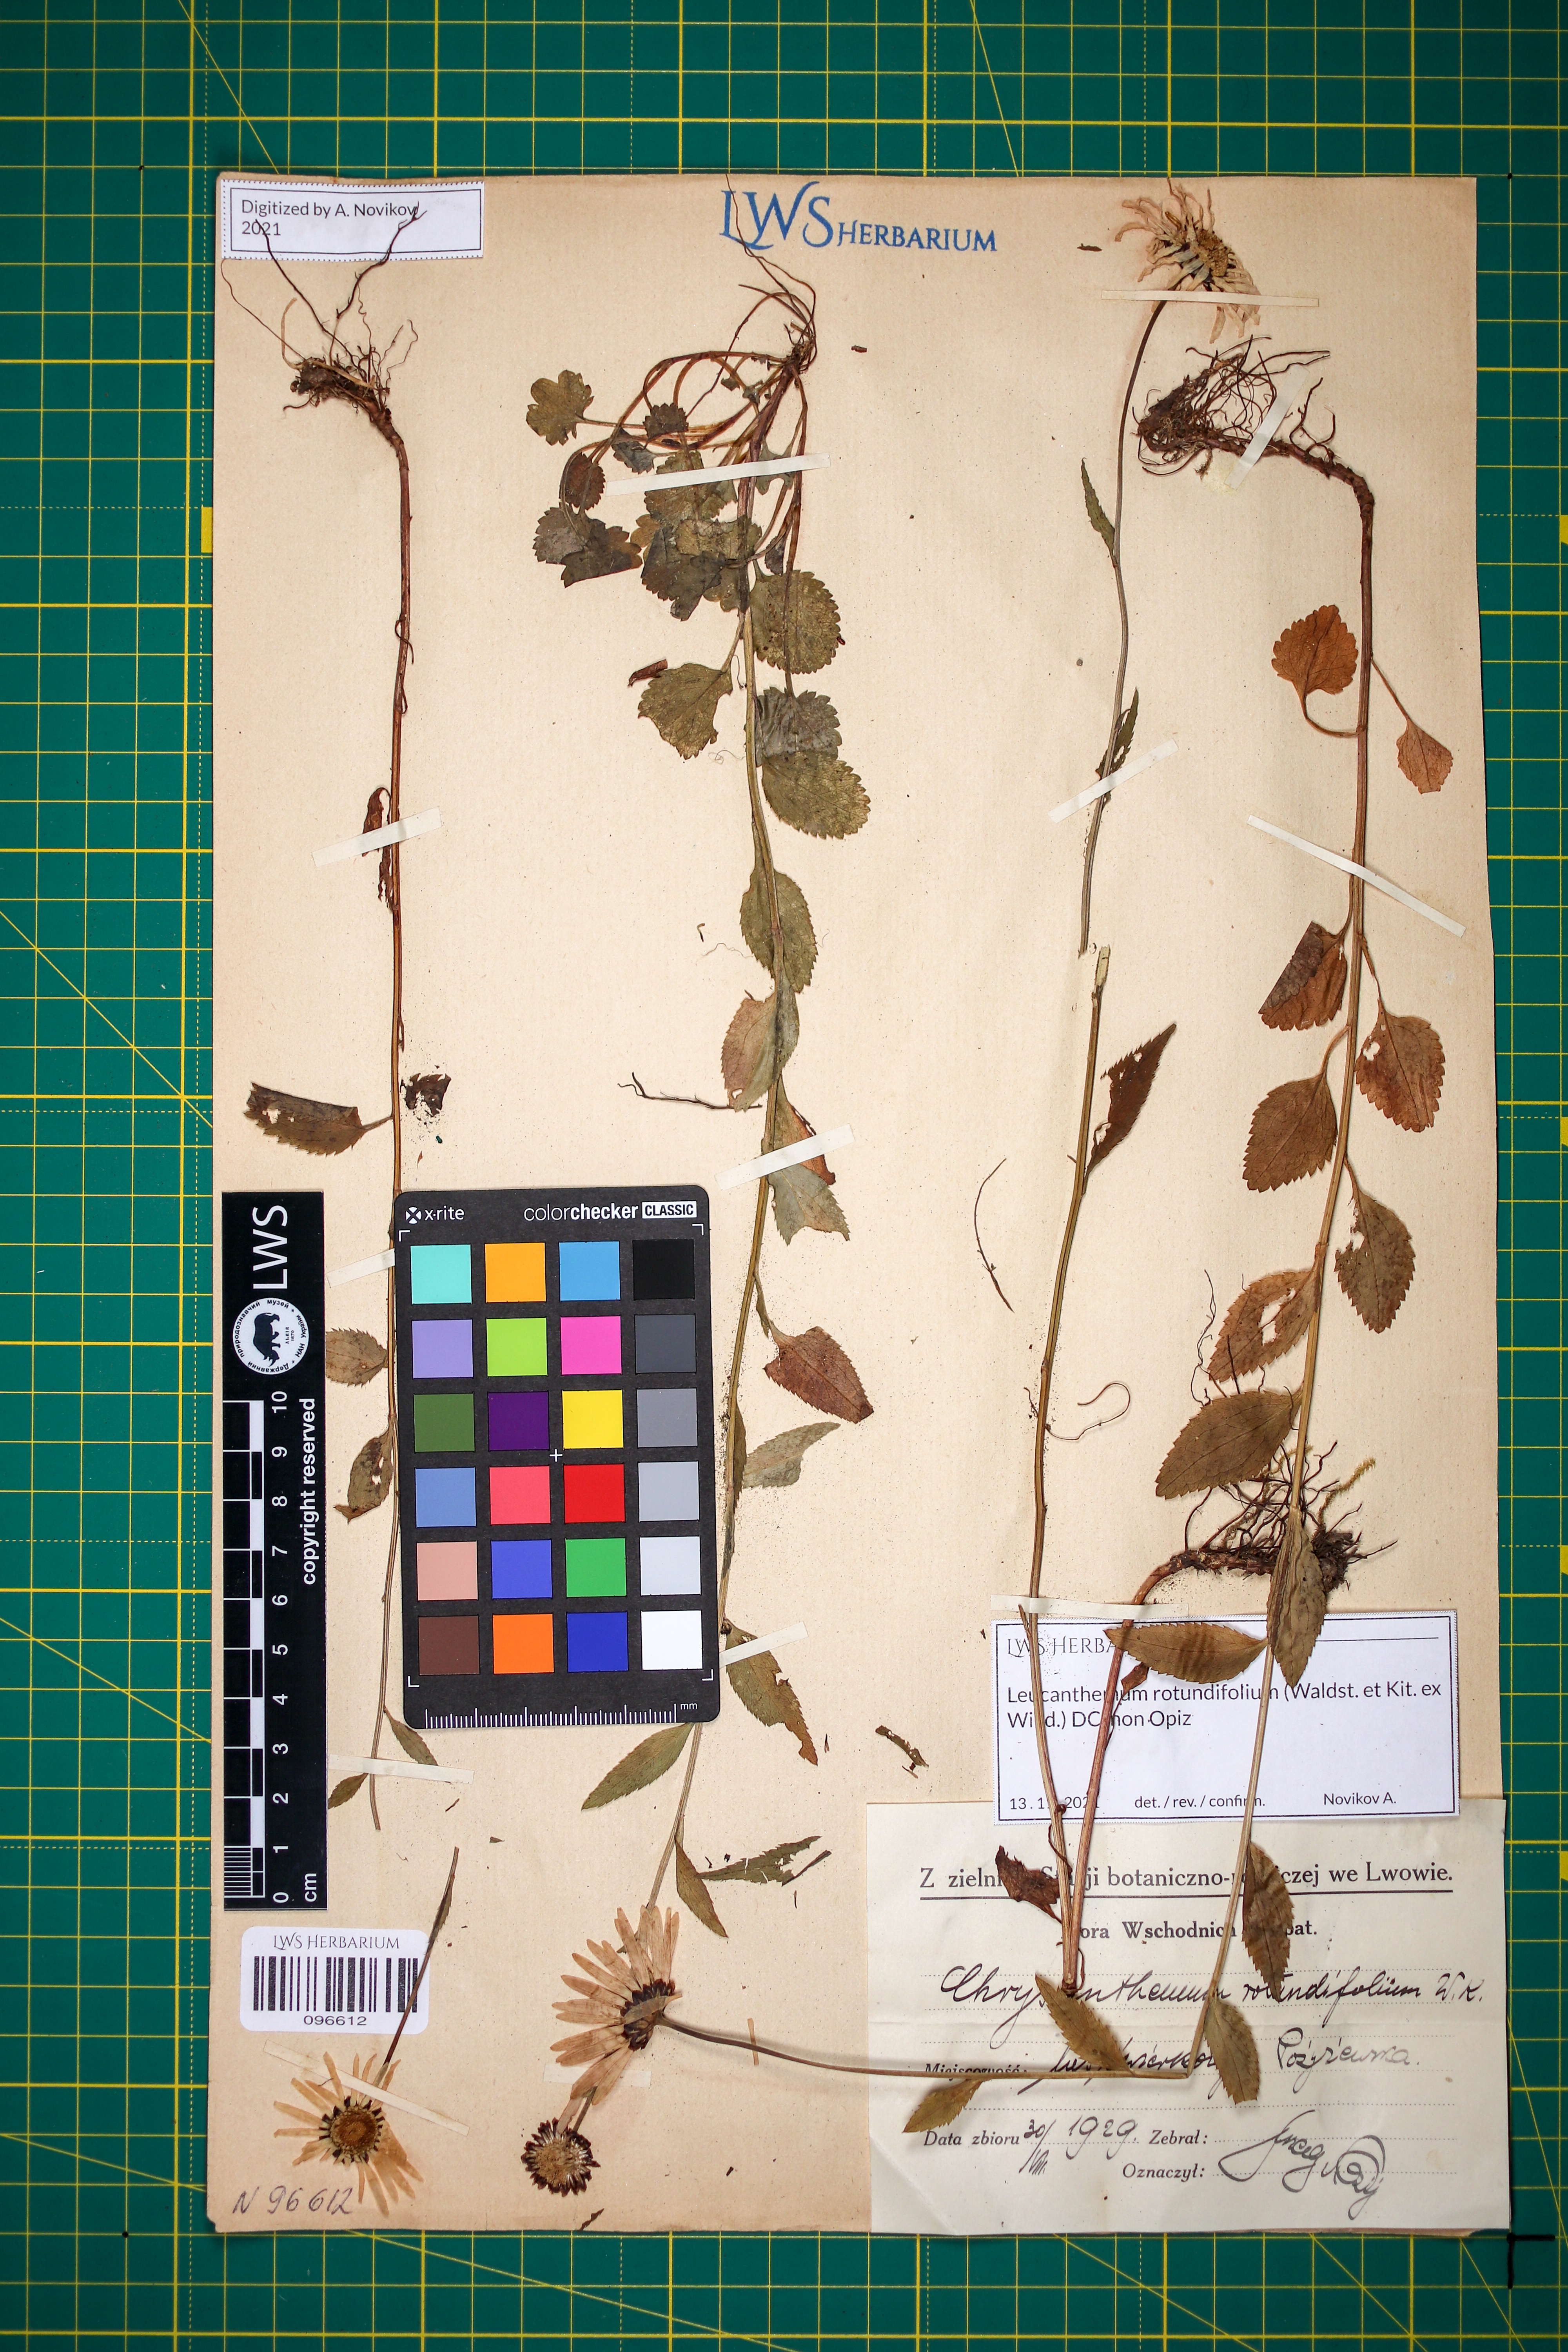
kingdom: Plantae
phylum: Tracheophyta
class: Magnoliopsida
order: Asterales
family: Asteraceae
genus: Leucanthemum
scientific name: Leucanthemum rotundifolium
